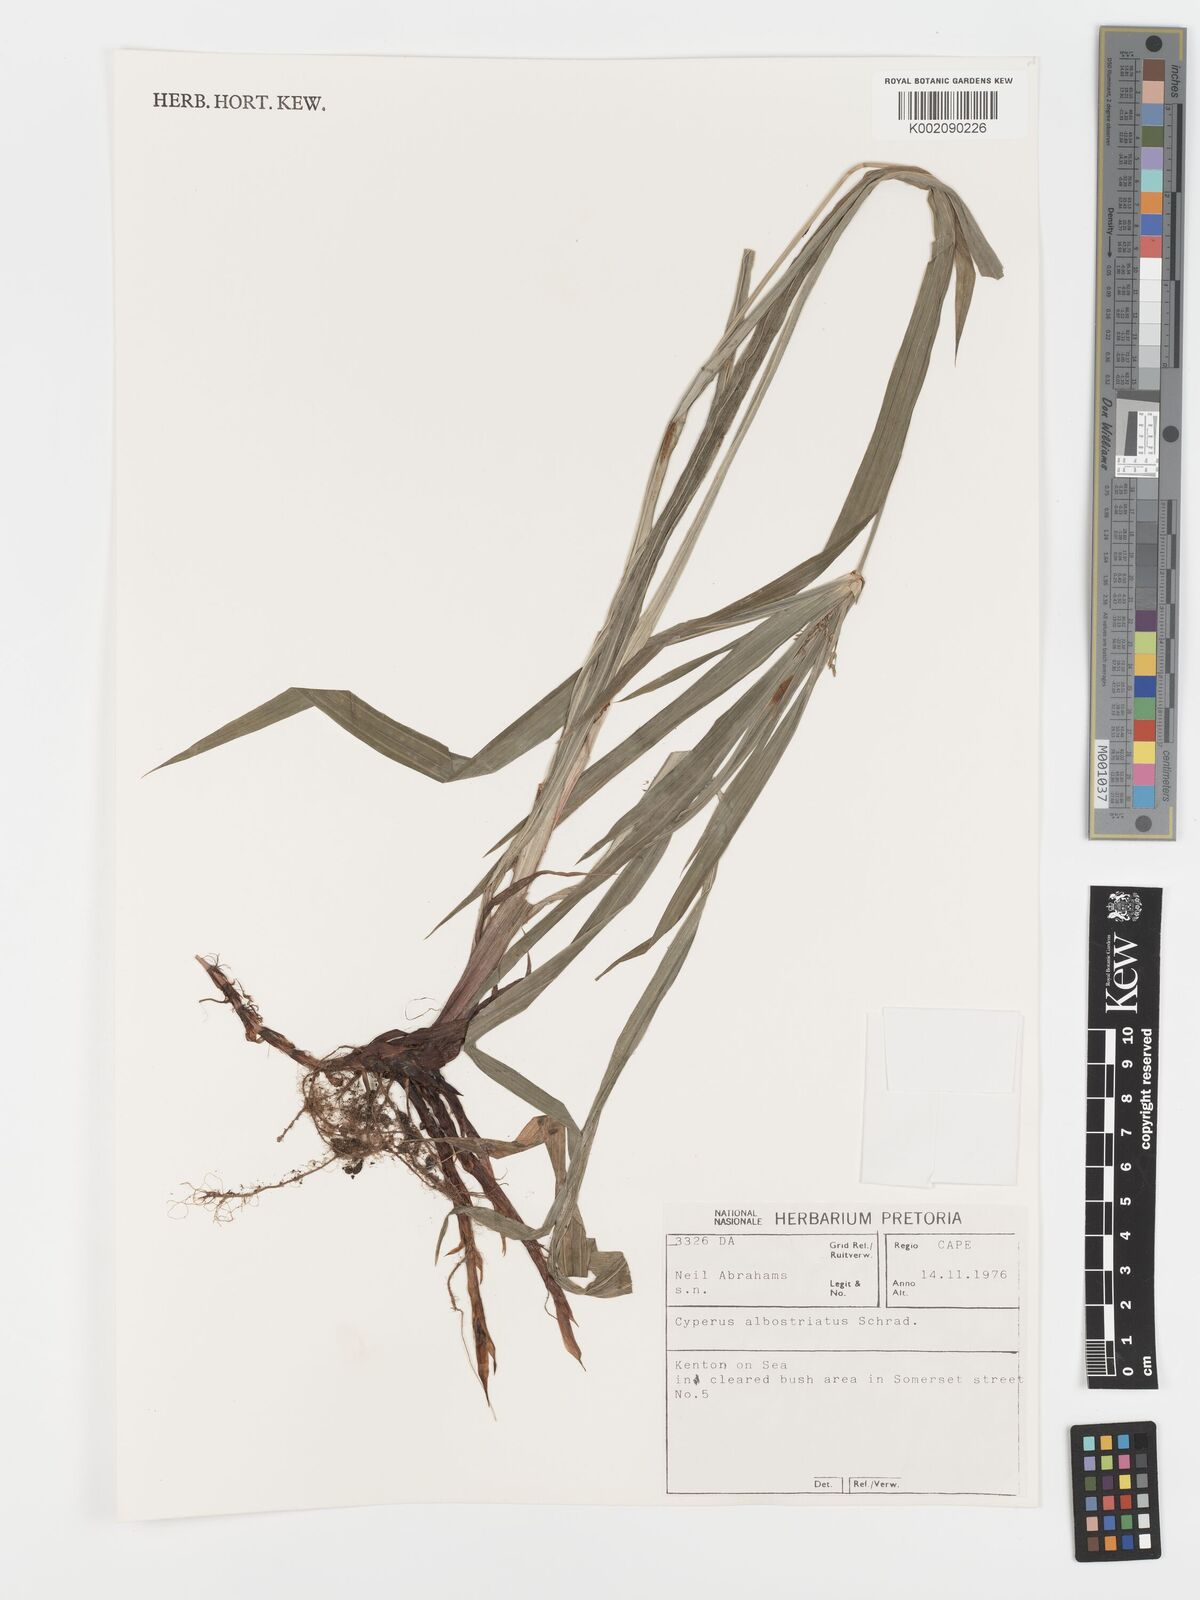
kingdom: Plantae
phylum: Tracheophyta
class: Liliopsida
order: Poales
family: Cyperaceae
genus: Cyperus
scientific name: Cyperus albostriatus
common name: Dwarf umbrella-grass
